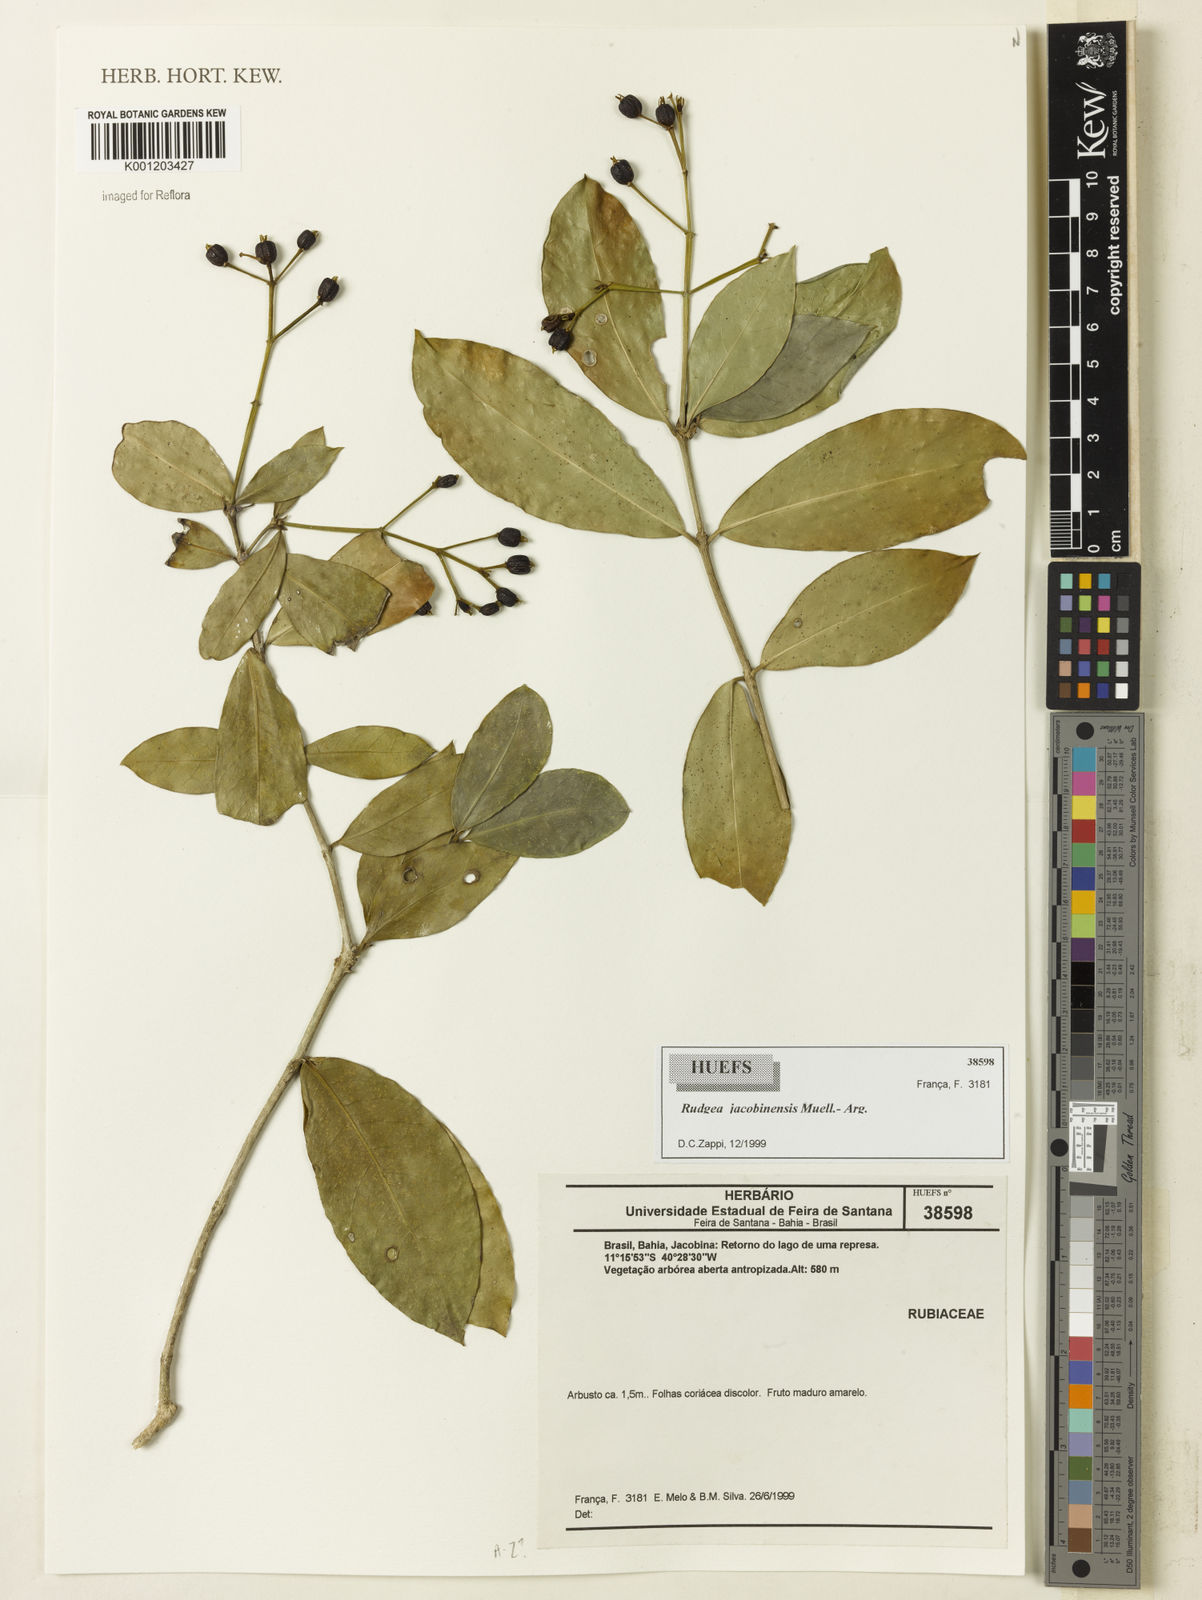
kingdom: Plantae
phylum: Tracheophyta
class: Magnoliopsida
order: Gentianales
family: Rubiaceae
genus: Rudgea
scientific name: Rudgea
